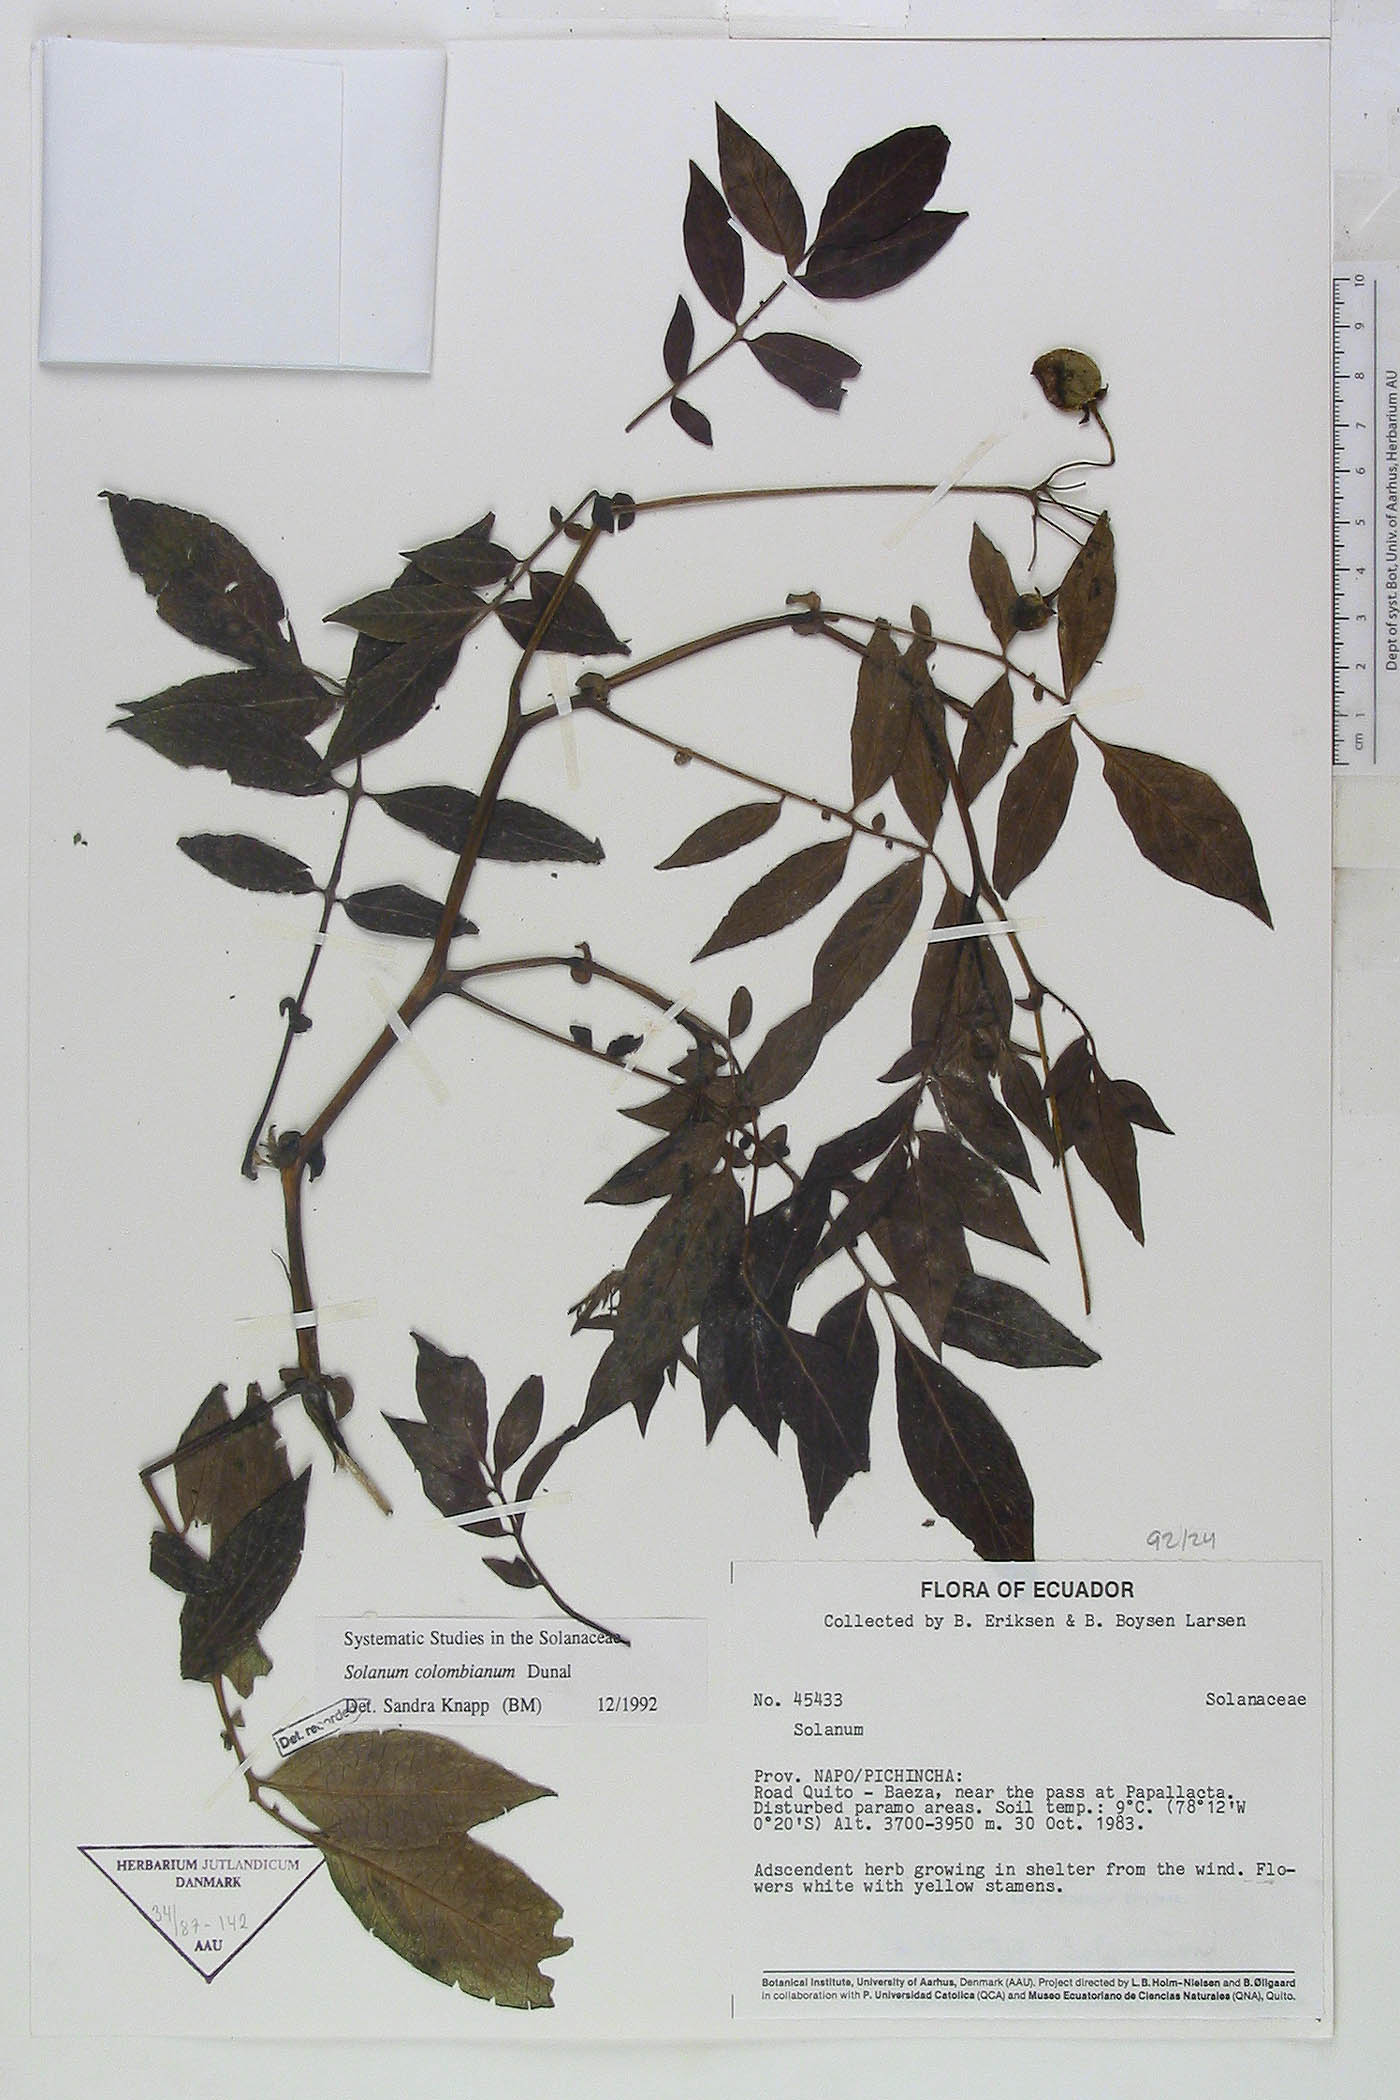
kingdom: Plantae
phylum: Tracheophyta
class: Magnoliopsida
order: Solanales
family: Solanaceae
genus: Solanum
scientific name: Solanum colombianum
